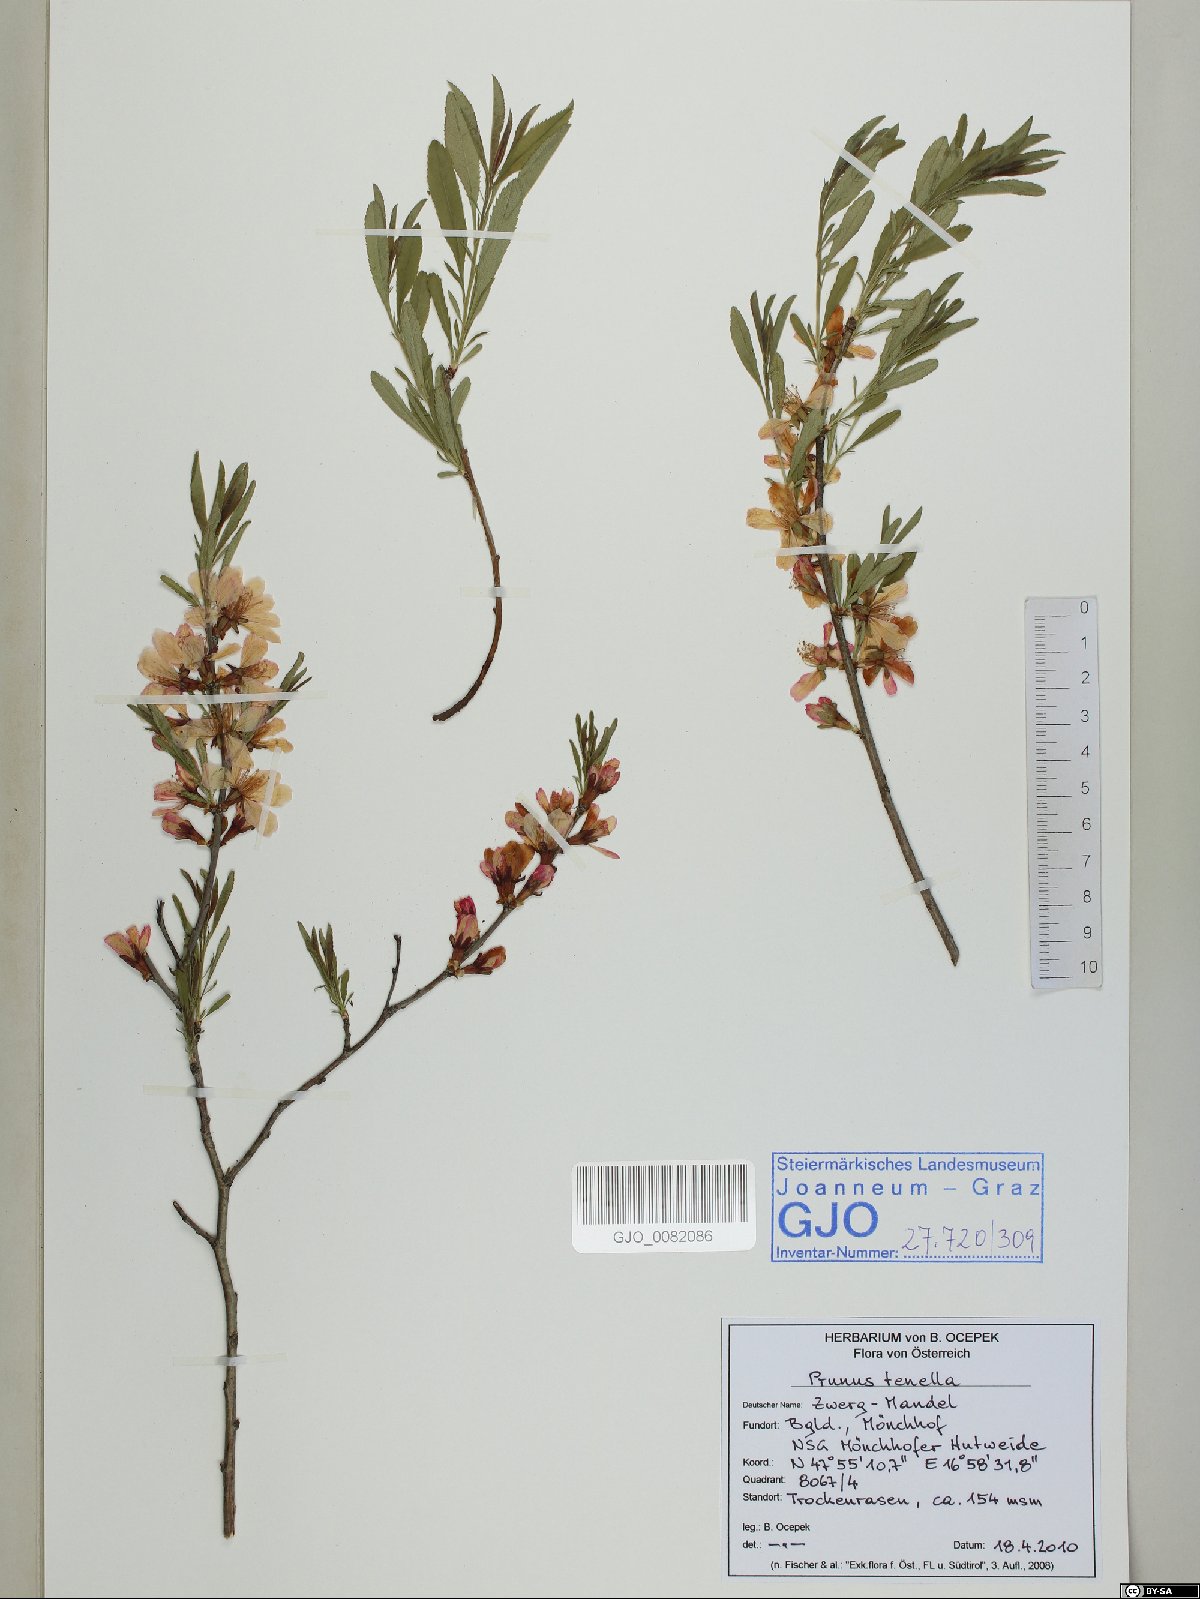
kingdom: Plantae
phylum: Tracheophyta
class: Magnoliopsida
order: Rosales
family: Rosaceae
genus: Prunus
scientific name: Prunus tenella
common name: Dwarf russian almond
